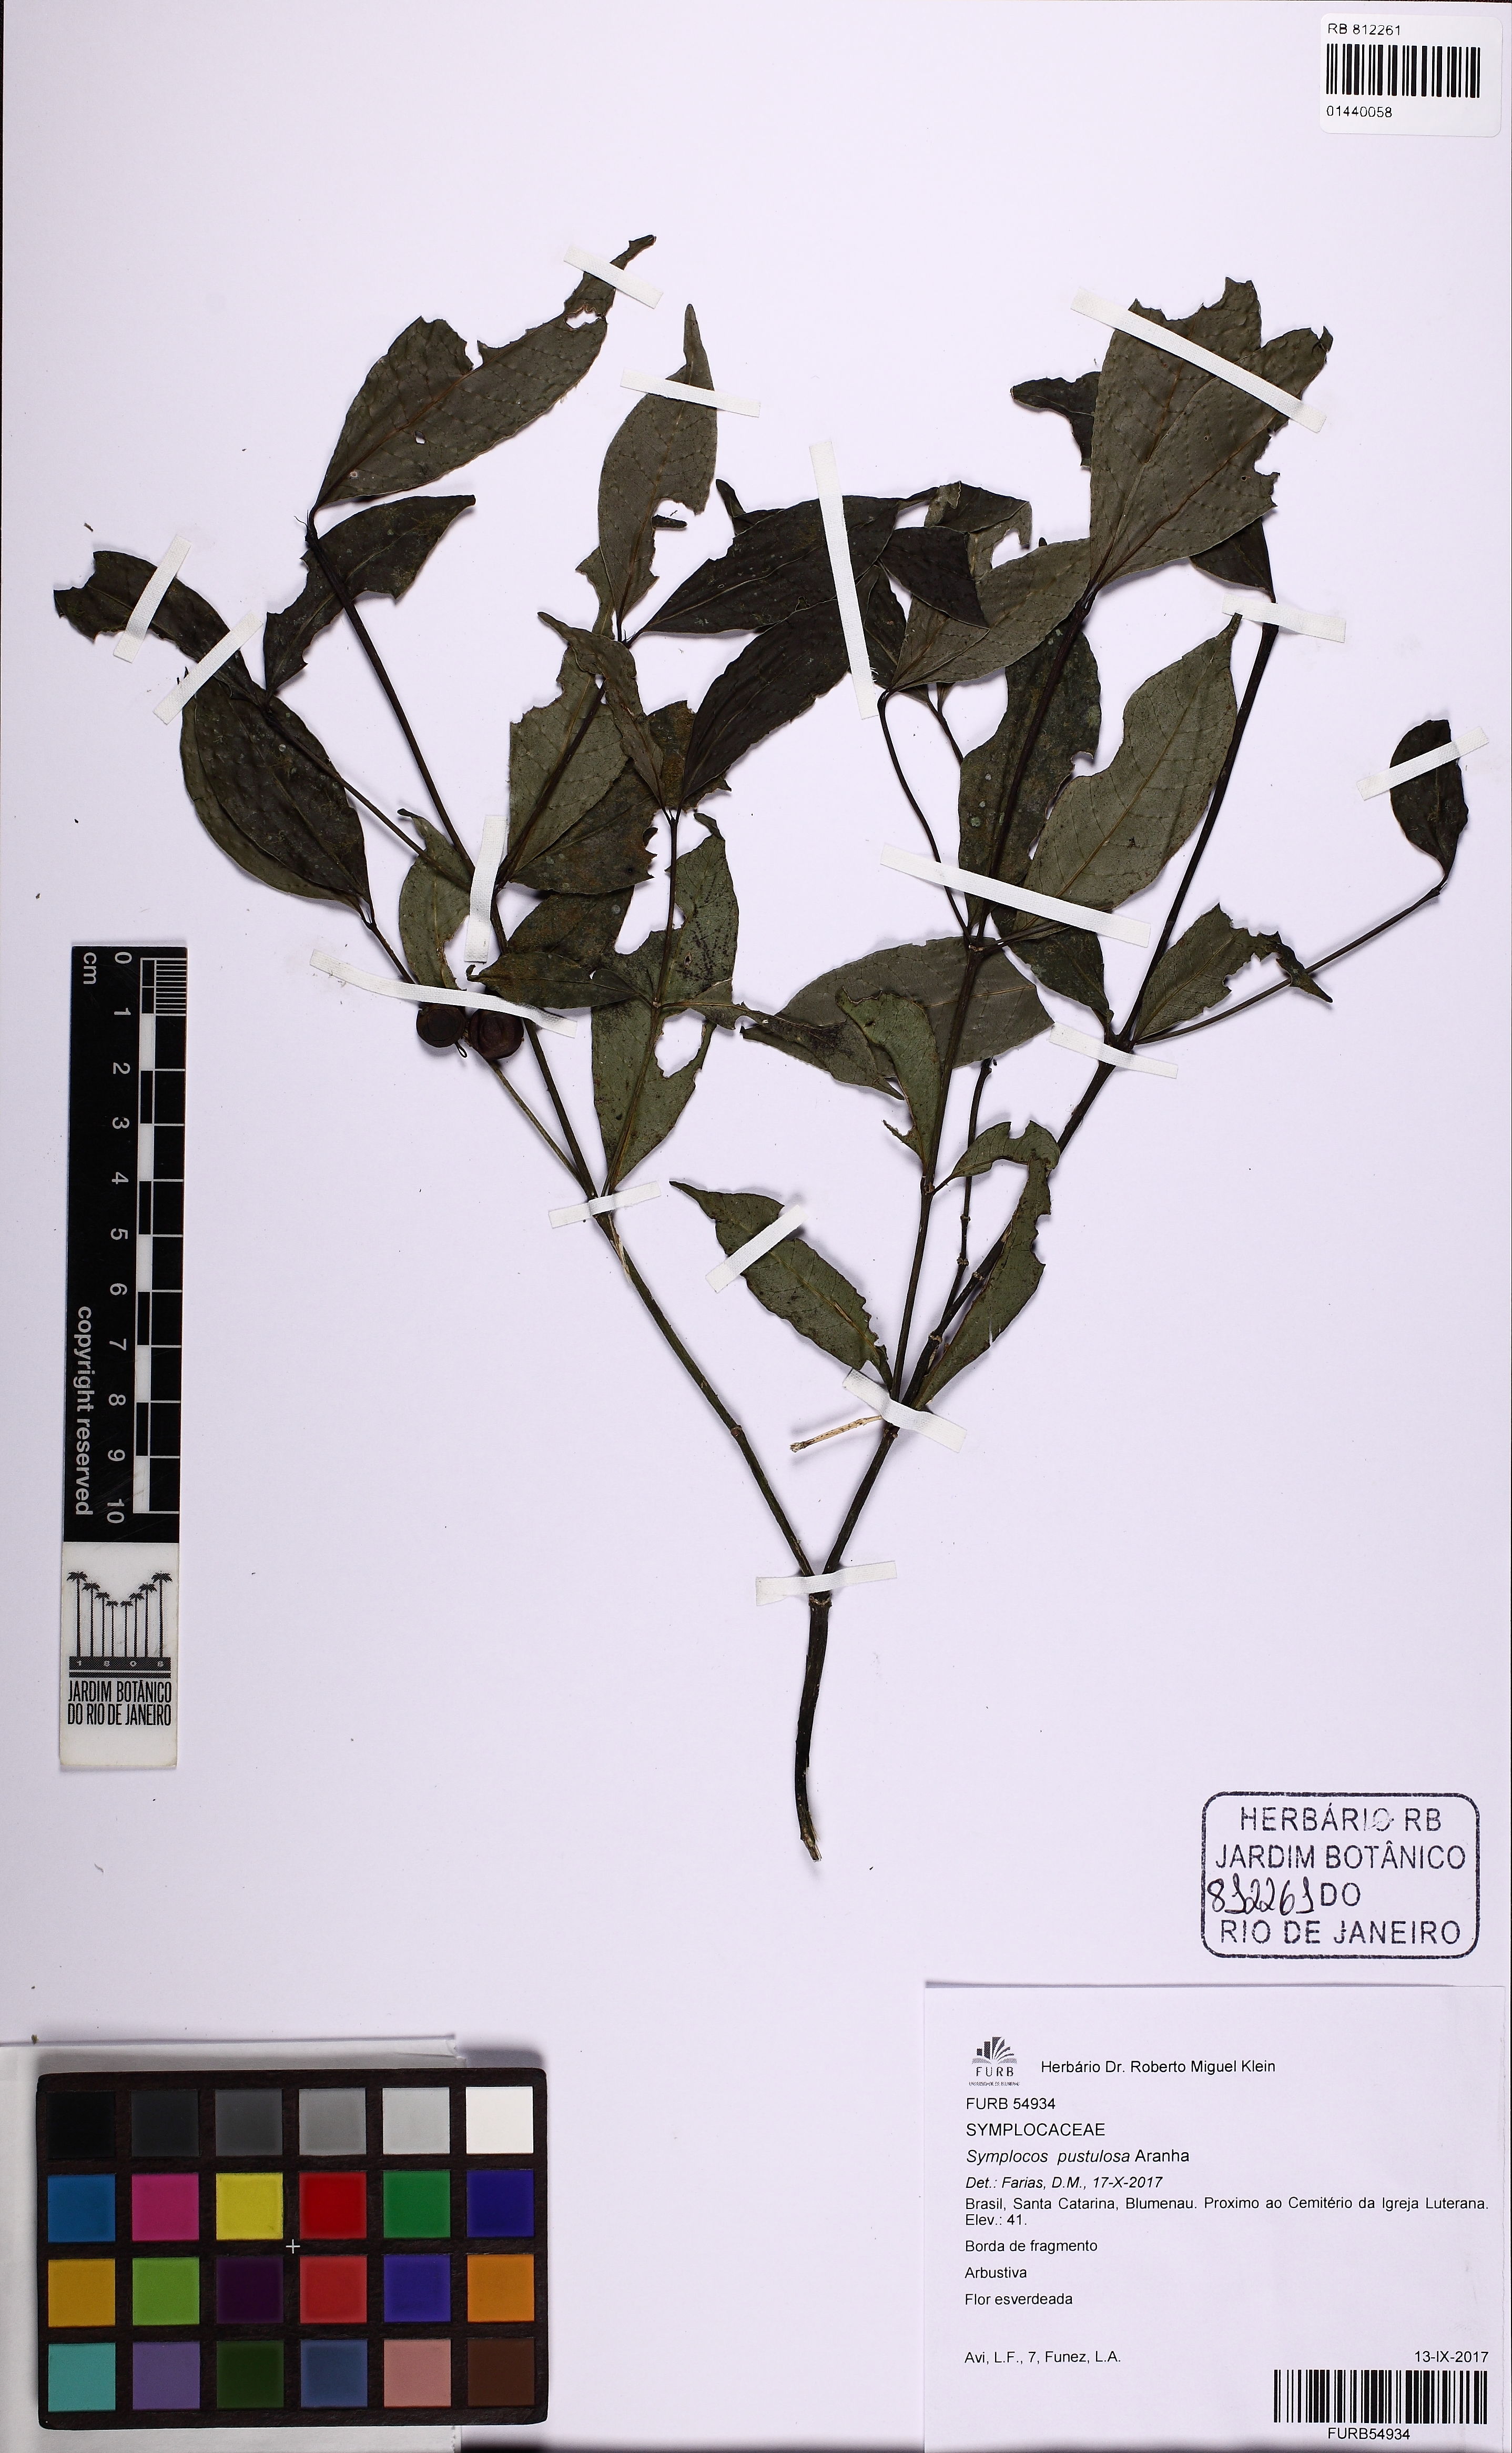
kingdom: Plantae
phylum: Tracheophyta
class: Magnoliopsida
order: Ericales
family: Symplocaceae
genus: Symplocos
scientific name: Symplocos pustulosa
